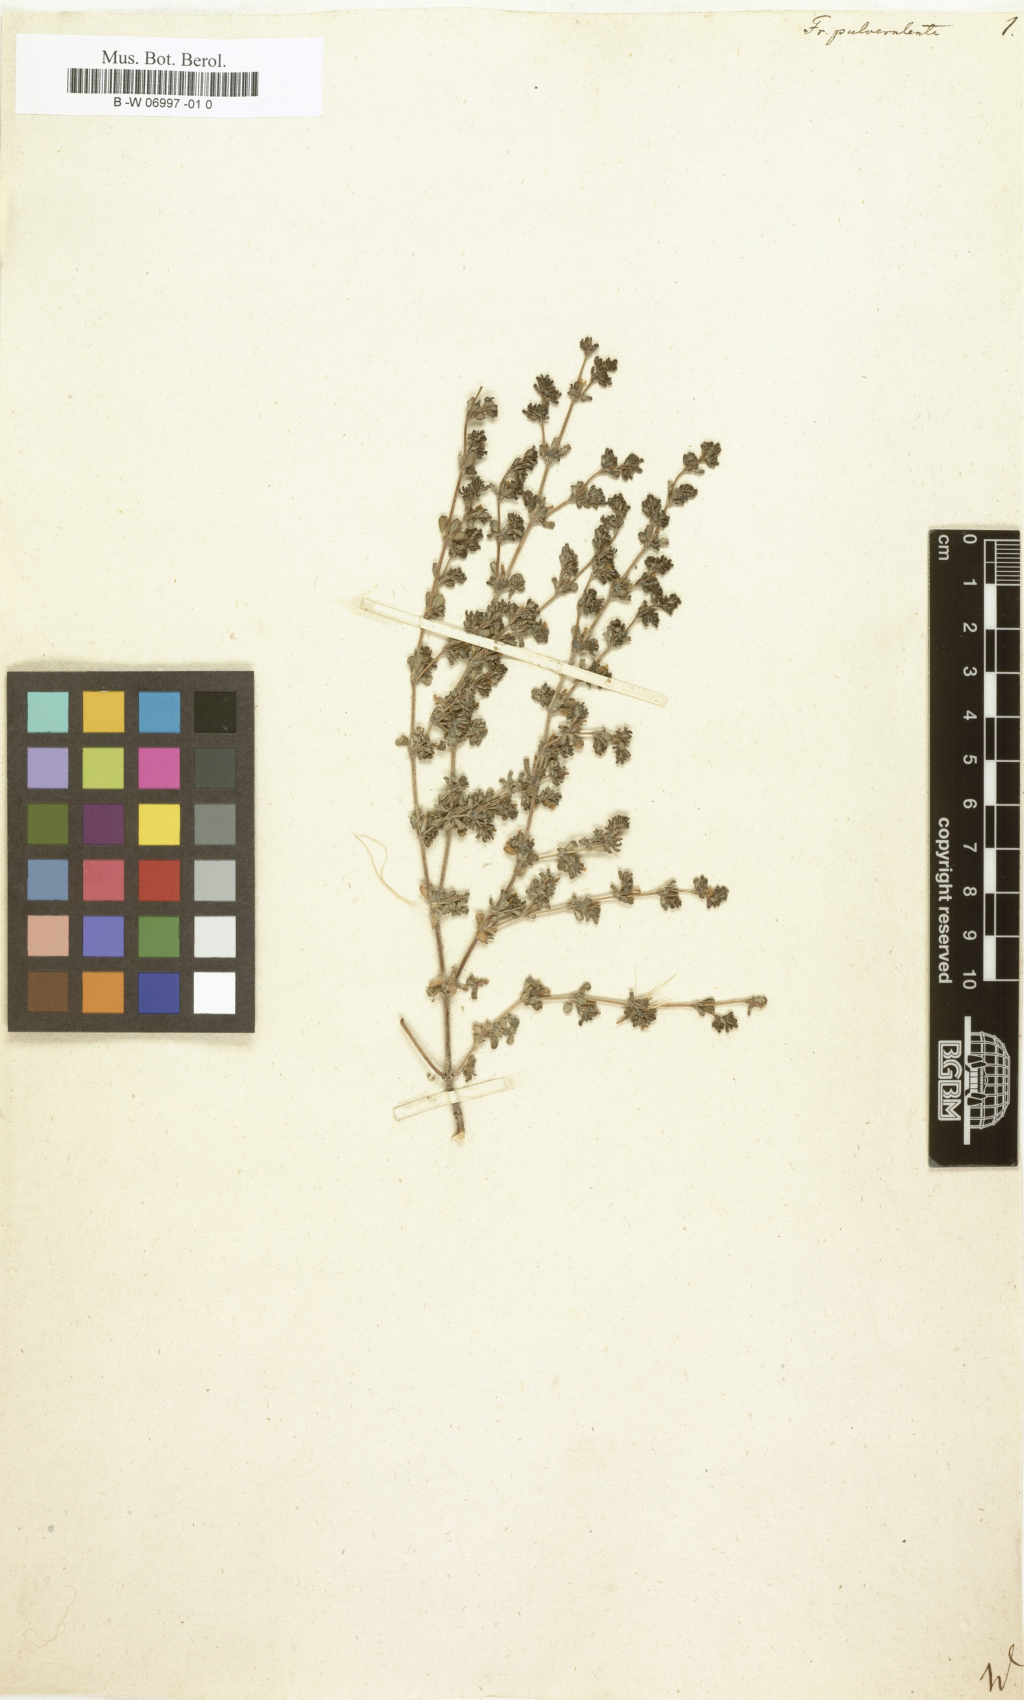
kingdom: Plantae
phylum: Tracheophyta
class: Magnoliopsida
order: Caryophyllales
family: Frankeniaceae
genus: Frankenia
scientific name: Frankenia pulverulenta
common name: European seaheath
